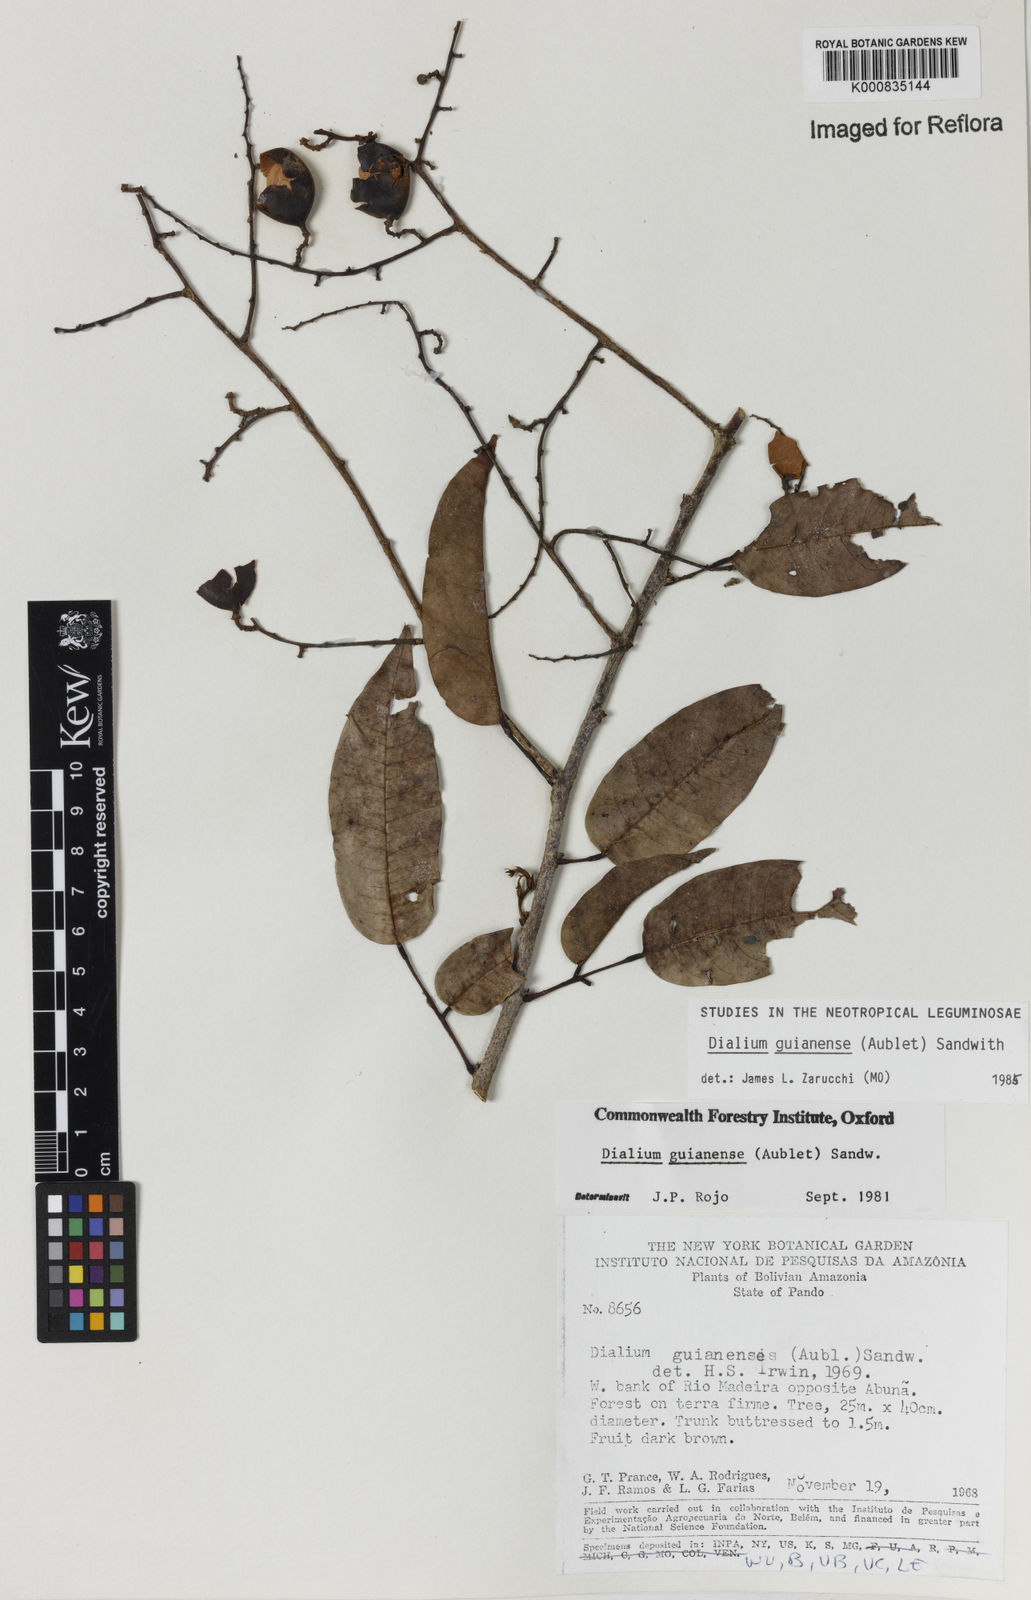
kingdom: Plantae
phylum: Tracheophyta
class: Magnoliopsida
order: Fabales
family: Fabaceae
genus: Dialium
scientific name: Dialium guianense
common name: Ironwood
